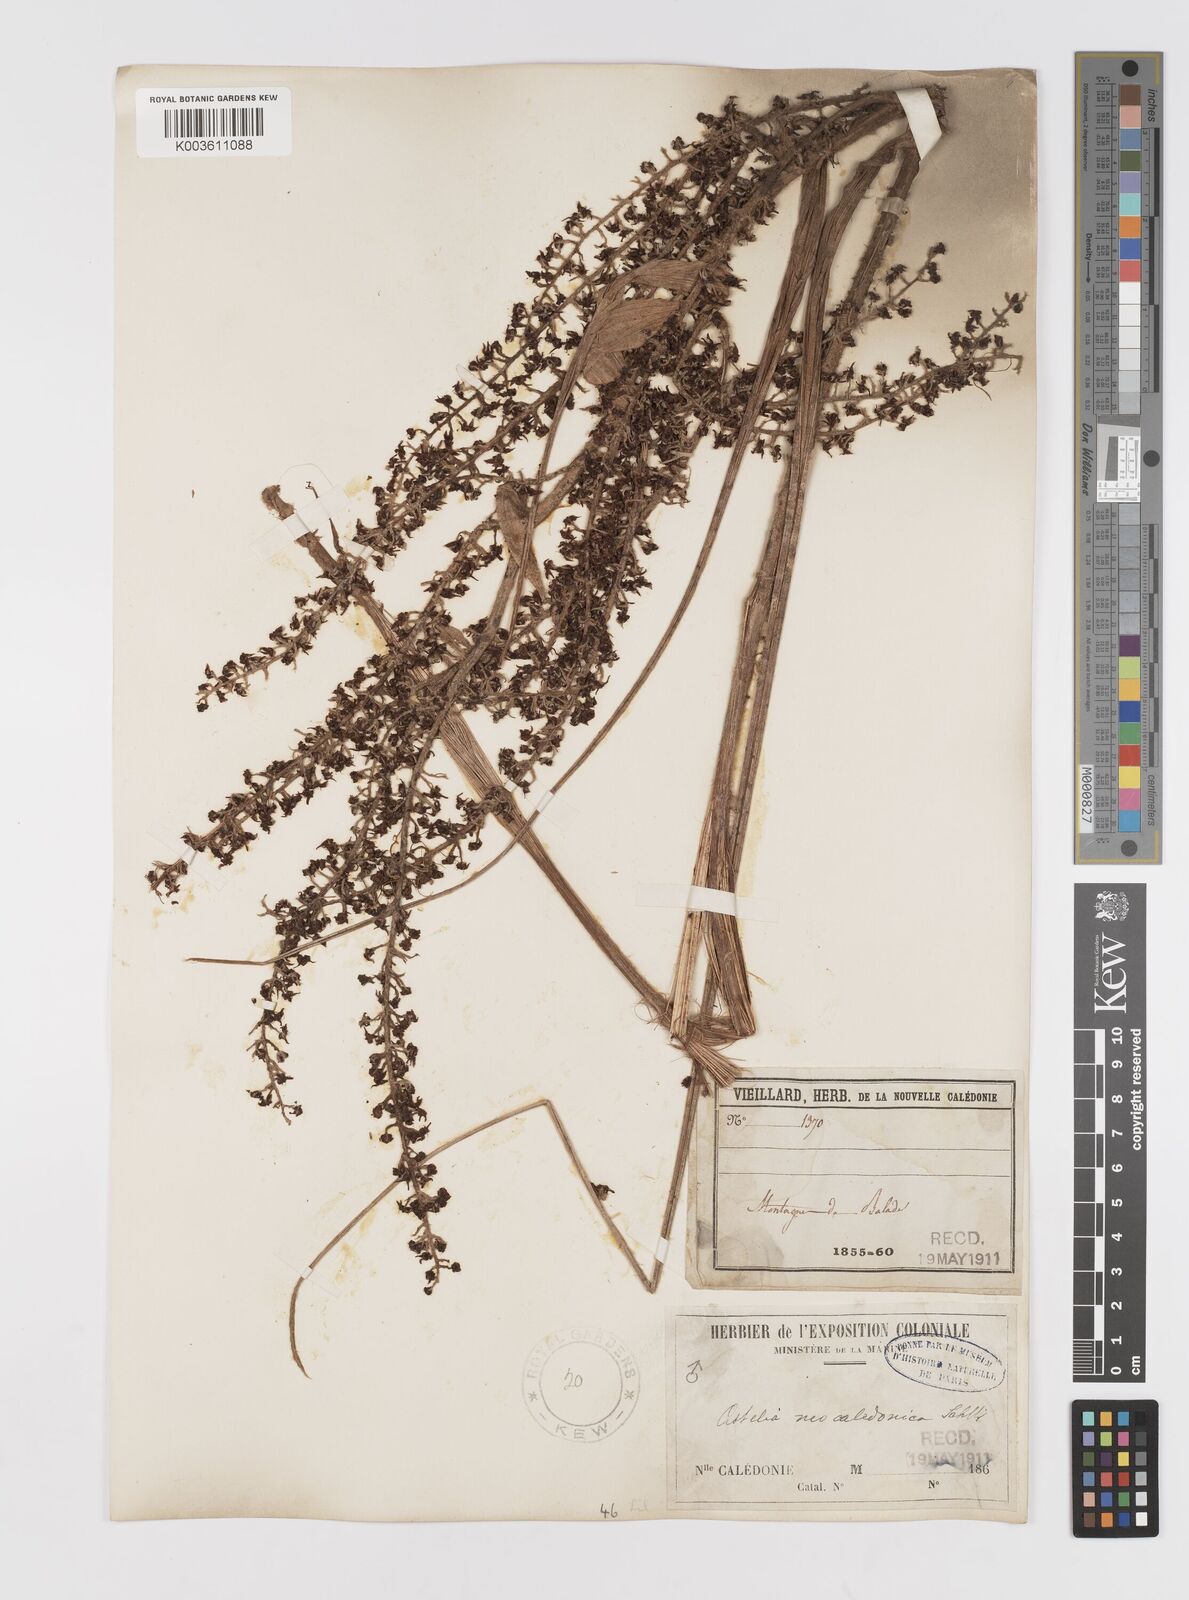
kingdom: Plantae
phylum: Tracheophyta
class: Liliopsida
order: Asparagales
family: Asteliaceae
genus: Astelia
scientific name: Astelia neocaledonica
